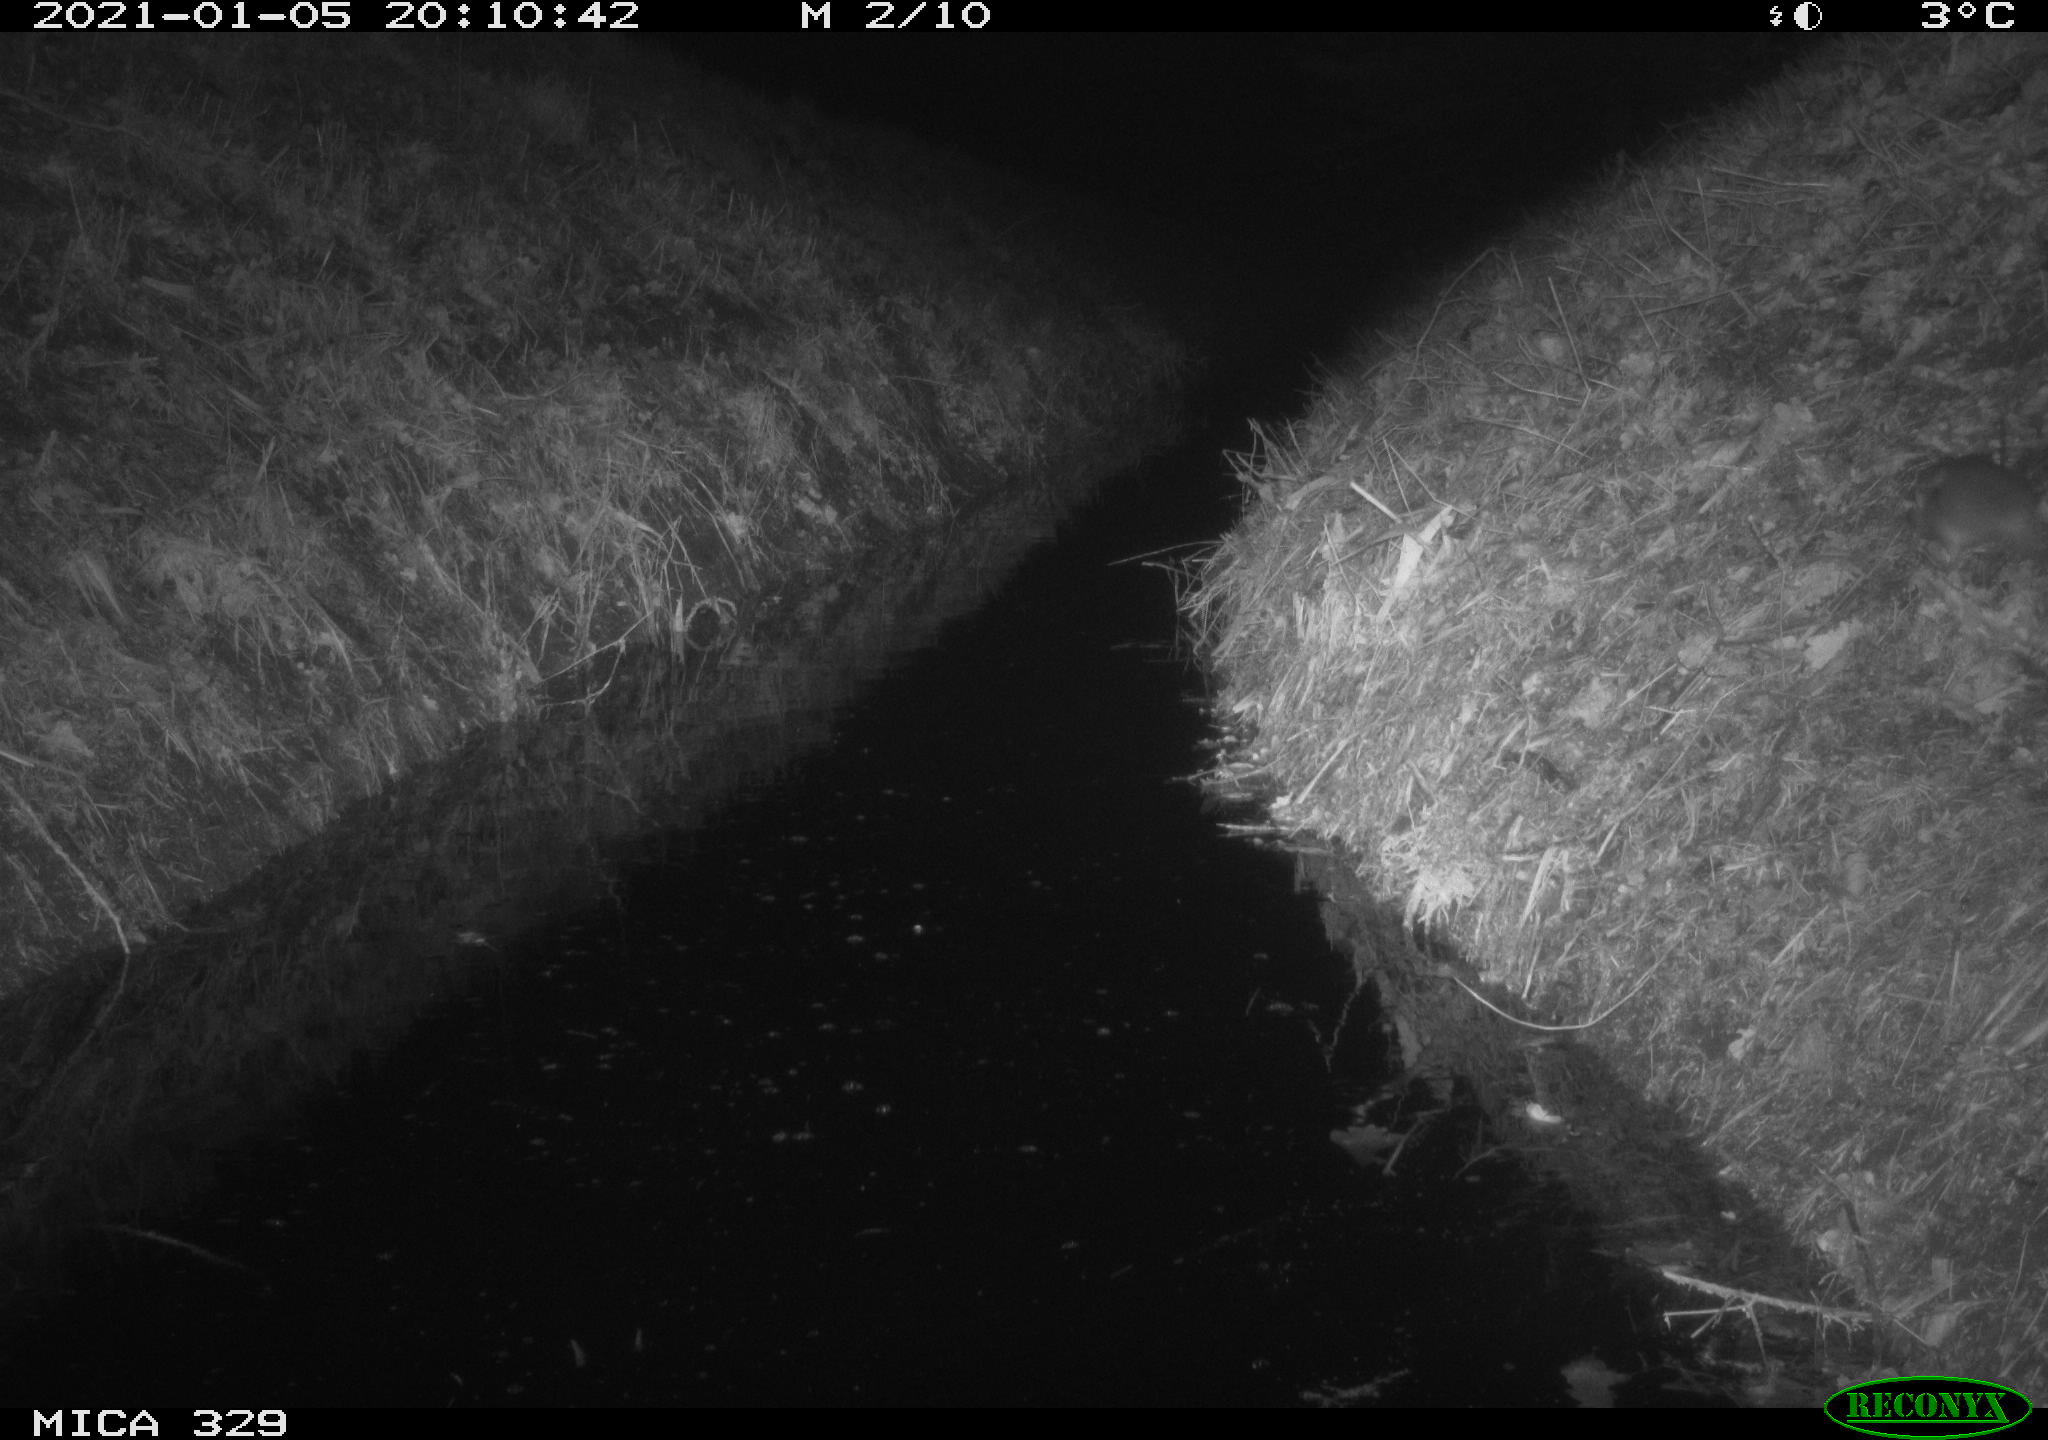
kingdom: Animalia
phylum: Chordata
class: Mammalia
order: Rodentia
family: Muridae
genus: Rattus
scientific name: Rattus norvegicus
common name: Brown rat
